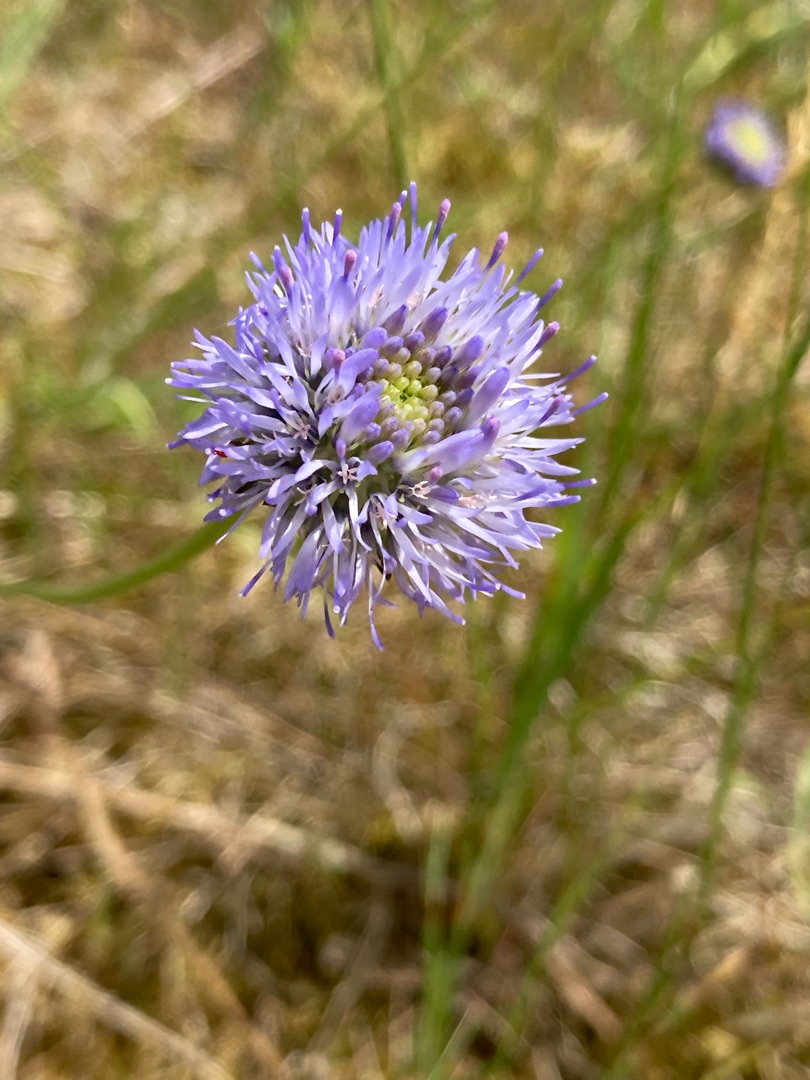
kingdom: Plantae
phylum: Tracheophyta
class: Magnoliopsida
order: Asterales
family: Campanulaceae
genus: Jasione
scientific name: Jasione montana
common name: Blåmunke
